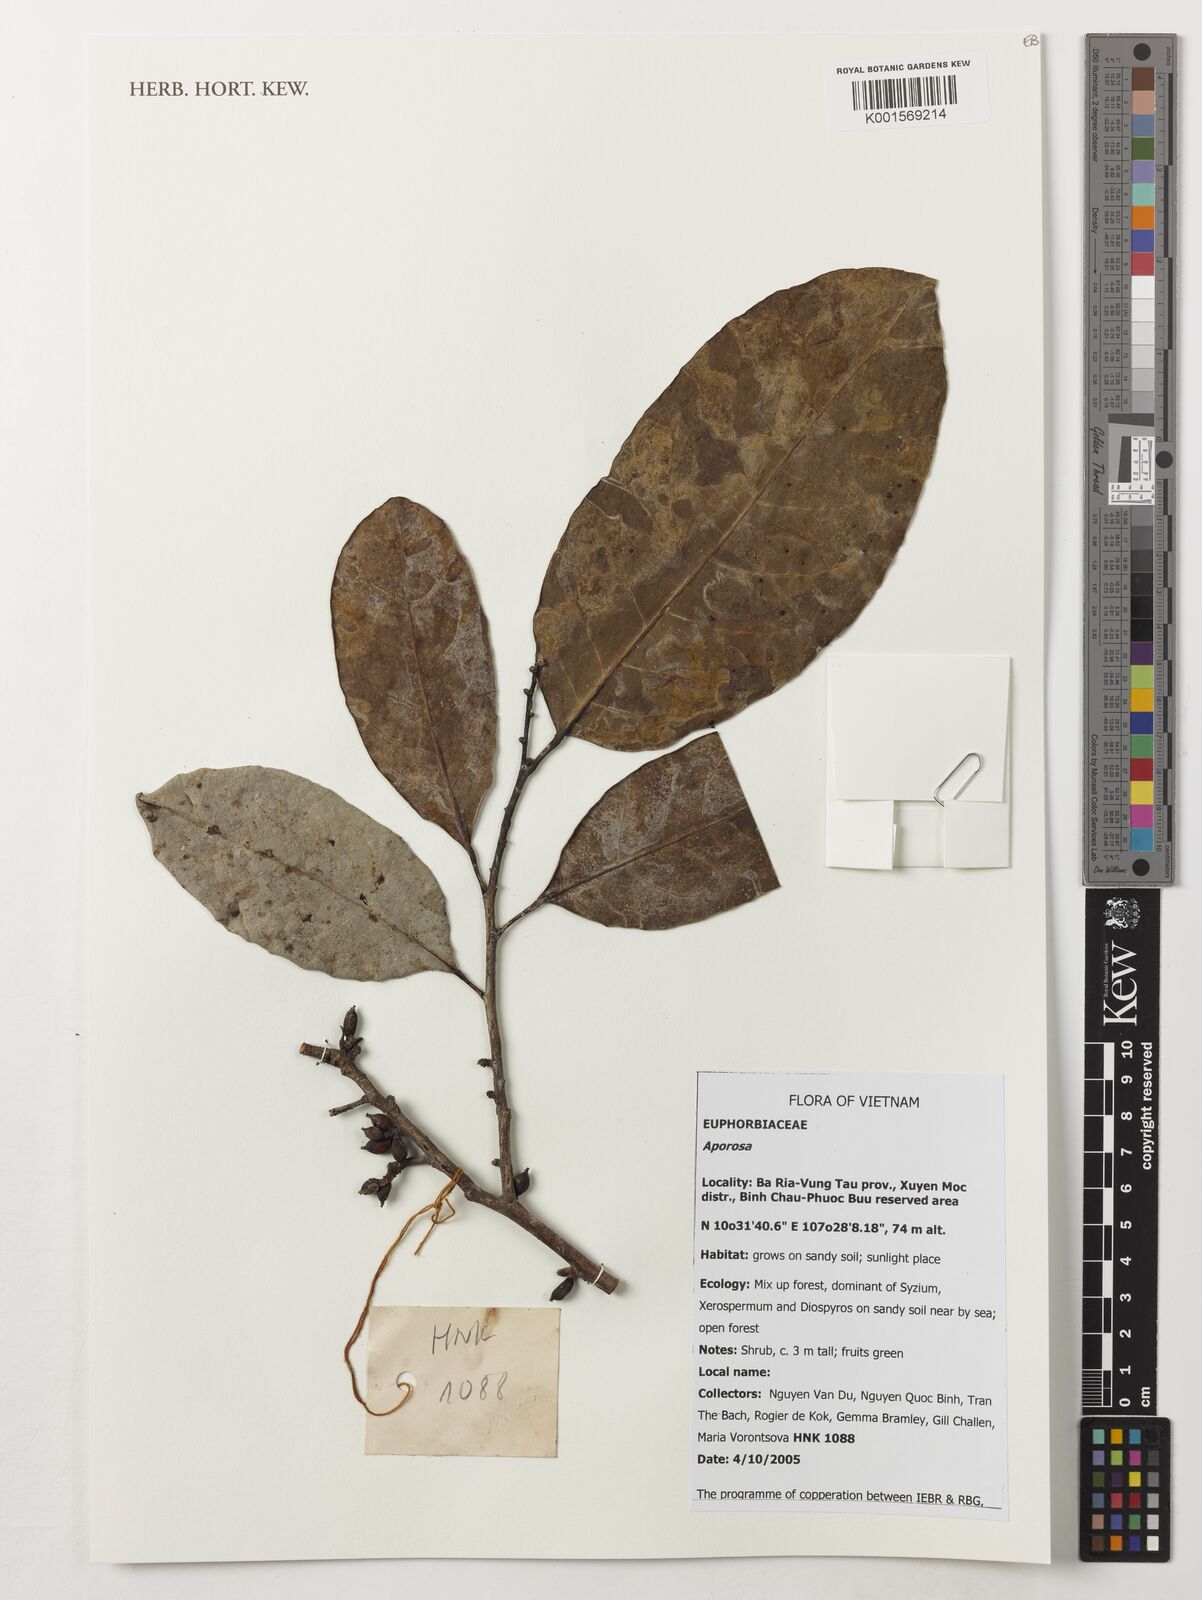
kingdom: Plantae
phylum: Tracheophyta
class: Magnoliopsida
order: Malpighiales
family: Phyllanthaceae
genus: Aporosa
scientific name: Aporosa
